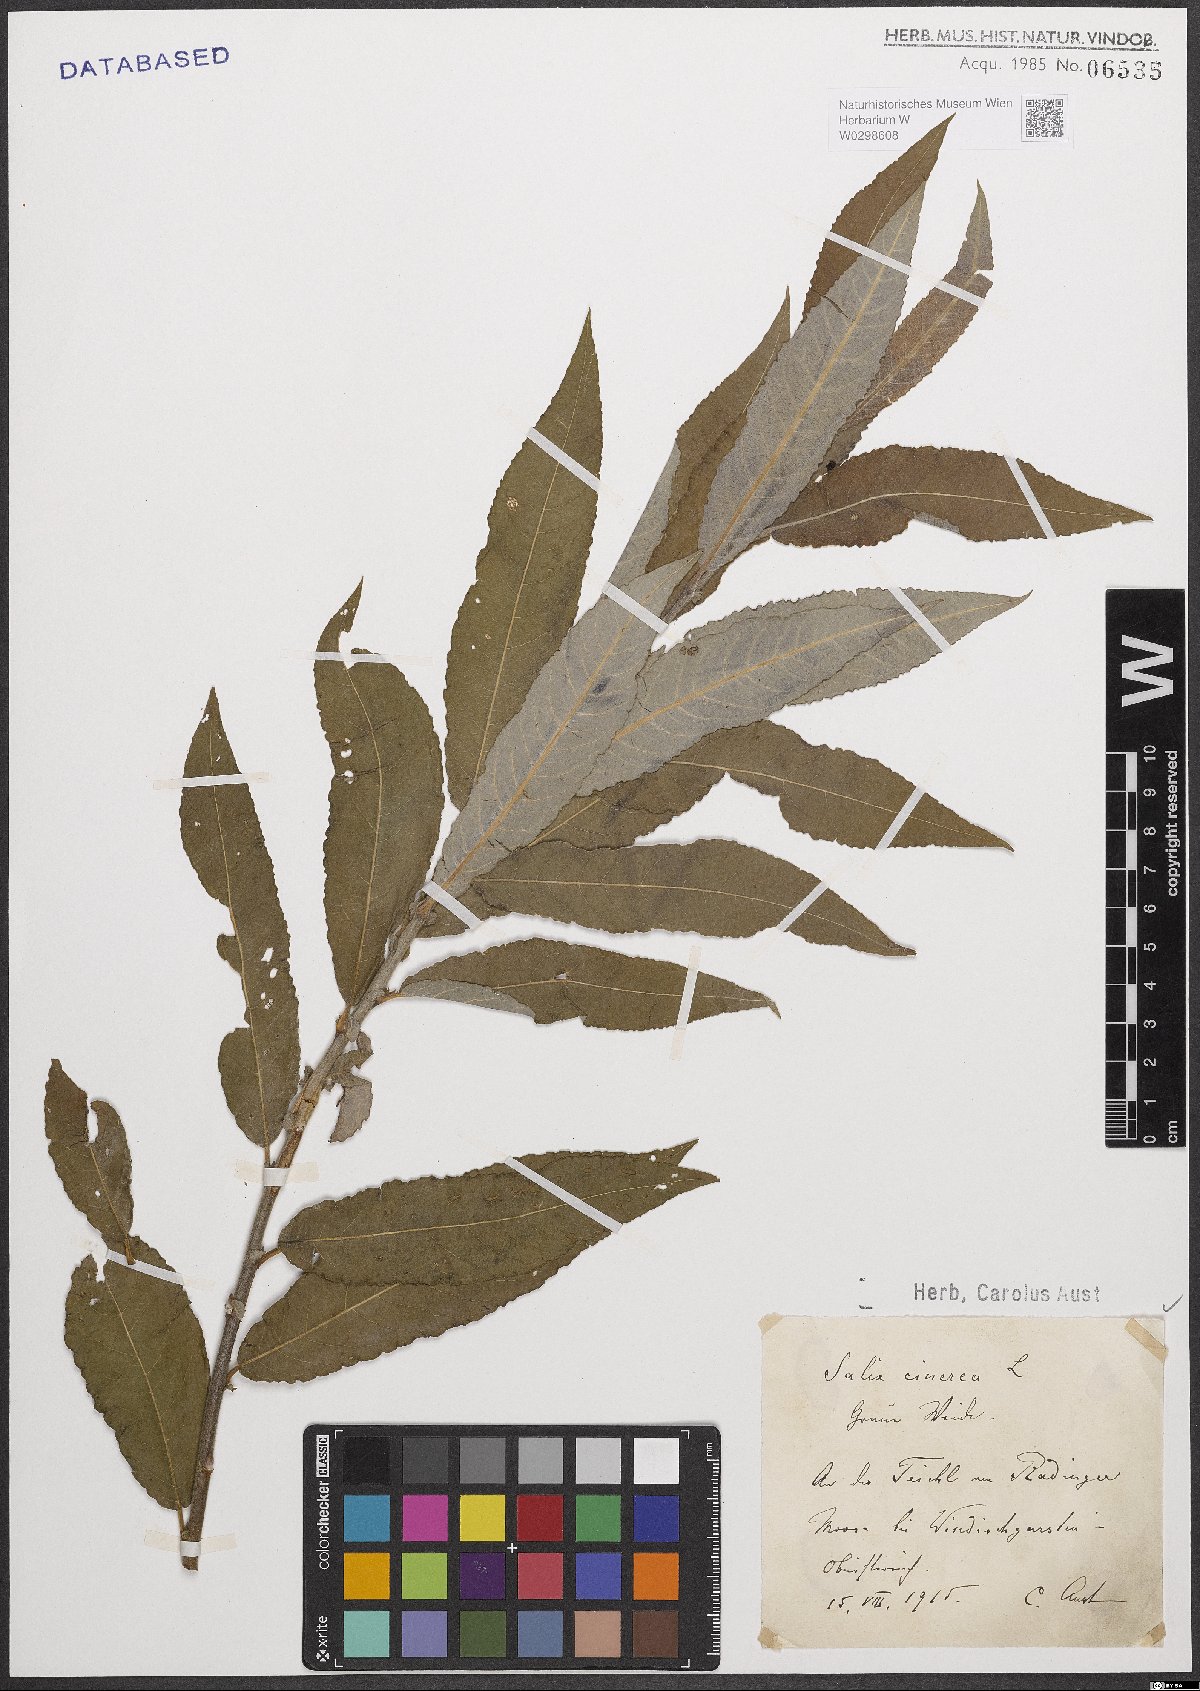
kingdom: Plantae
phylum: Tracheophyta
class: Magnoliopsida
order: Malpighiales
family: Salicaceae
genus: Salix
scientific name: Salix cinerea
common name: Common sallow
